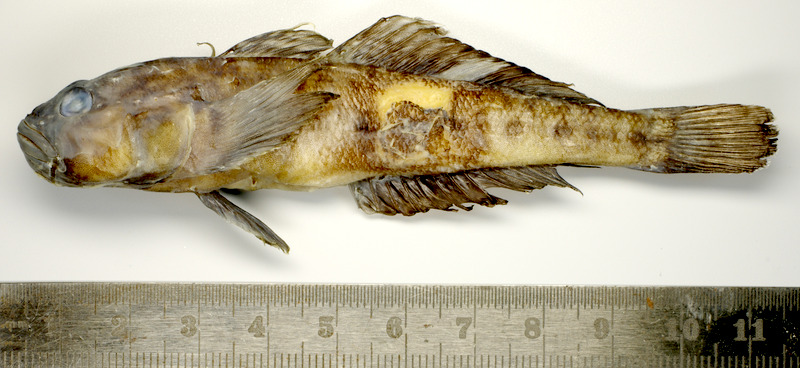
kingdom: Animalia
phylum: Chordata
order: Perciformes
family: Gobiidae
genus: Neogobius
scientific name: Neogobius
